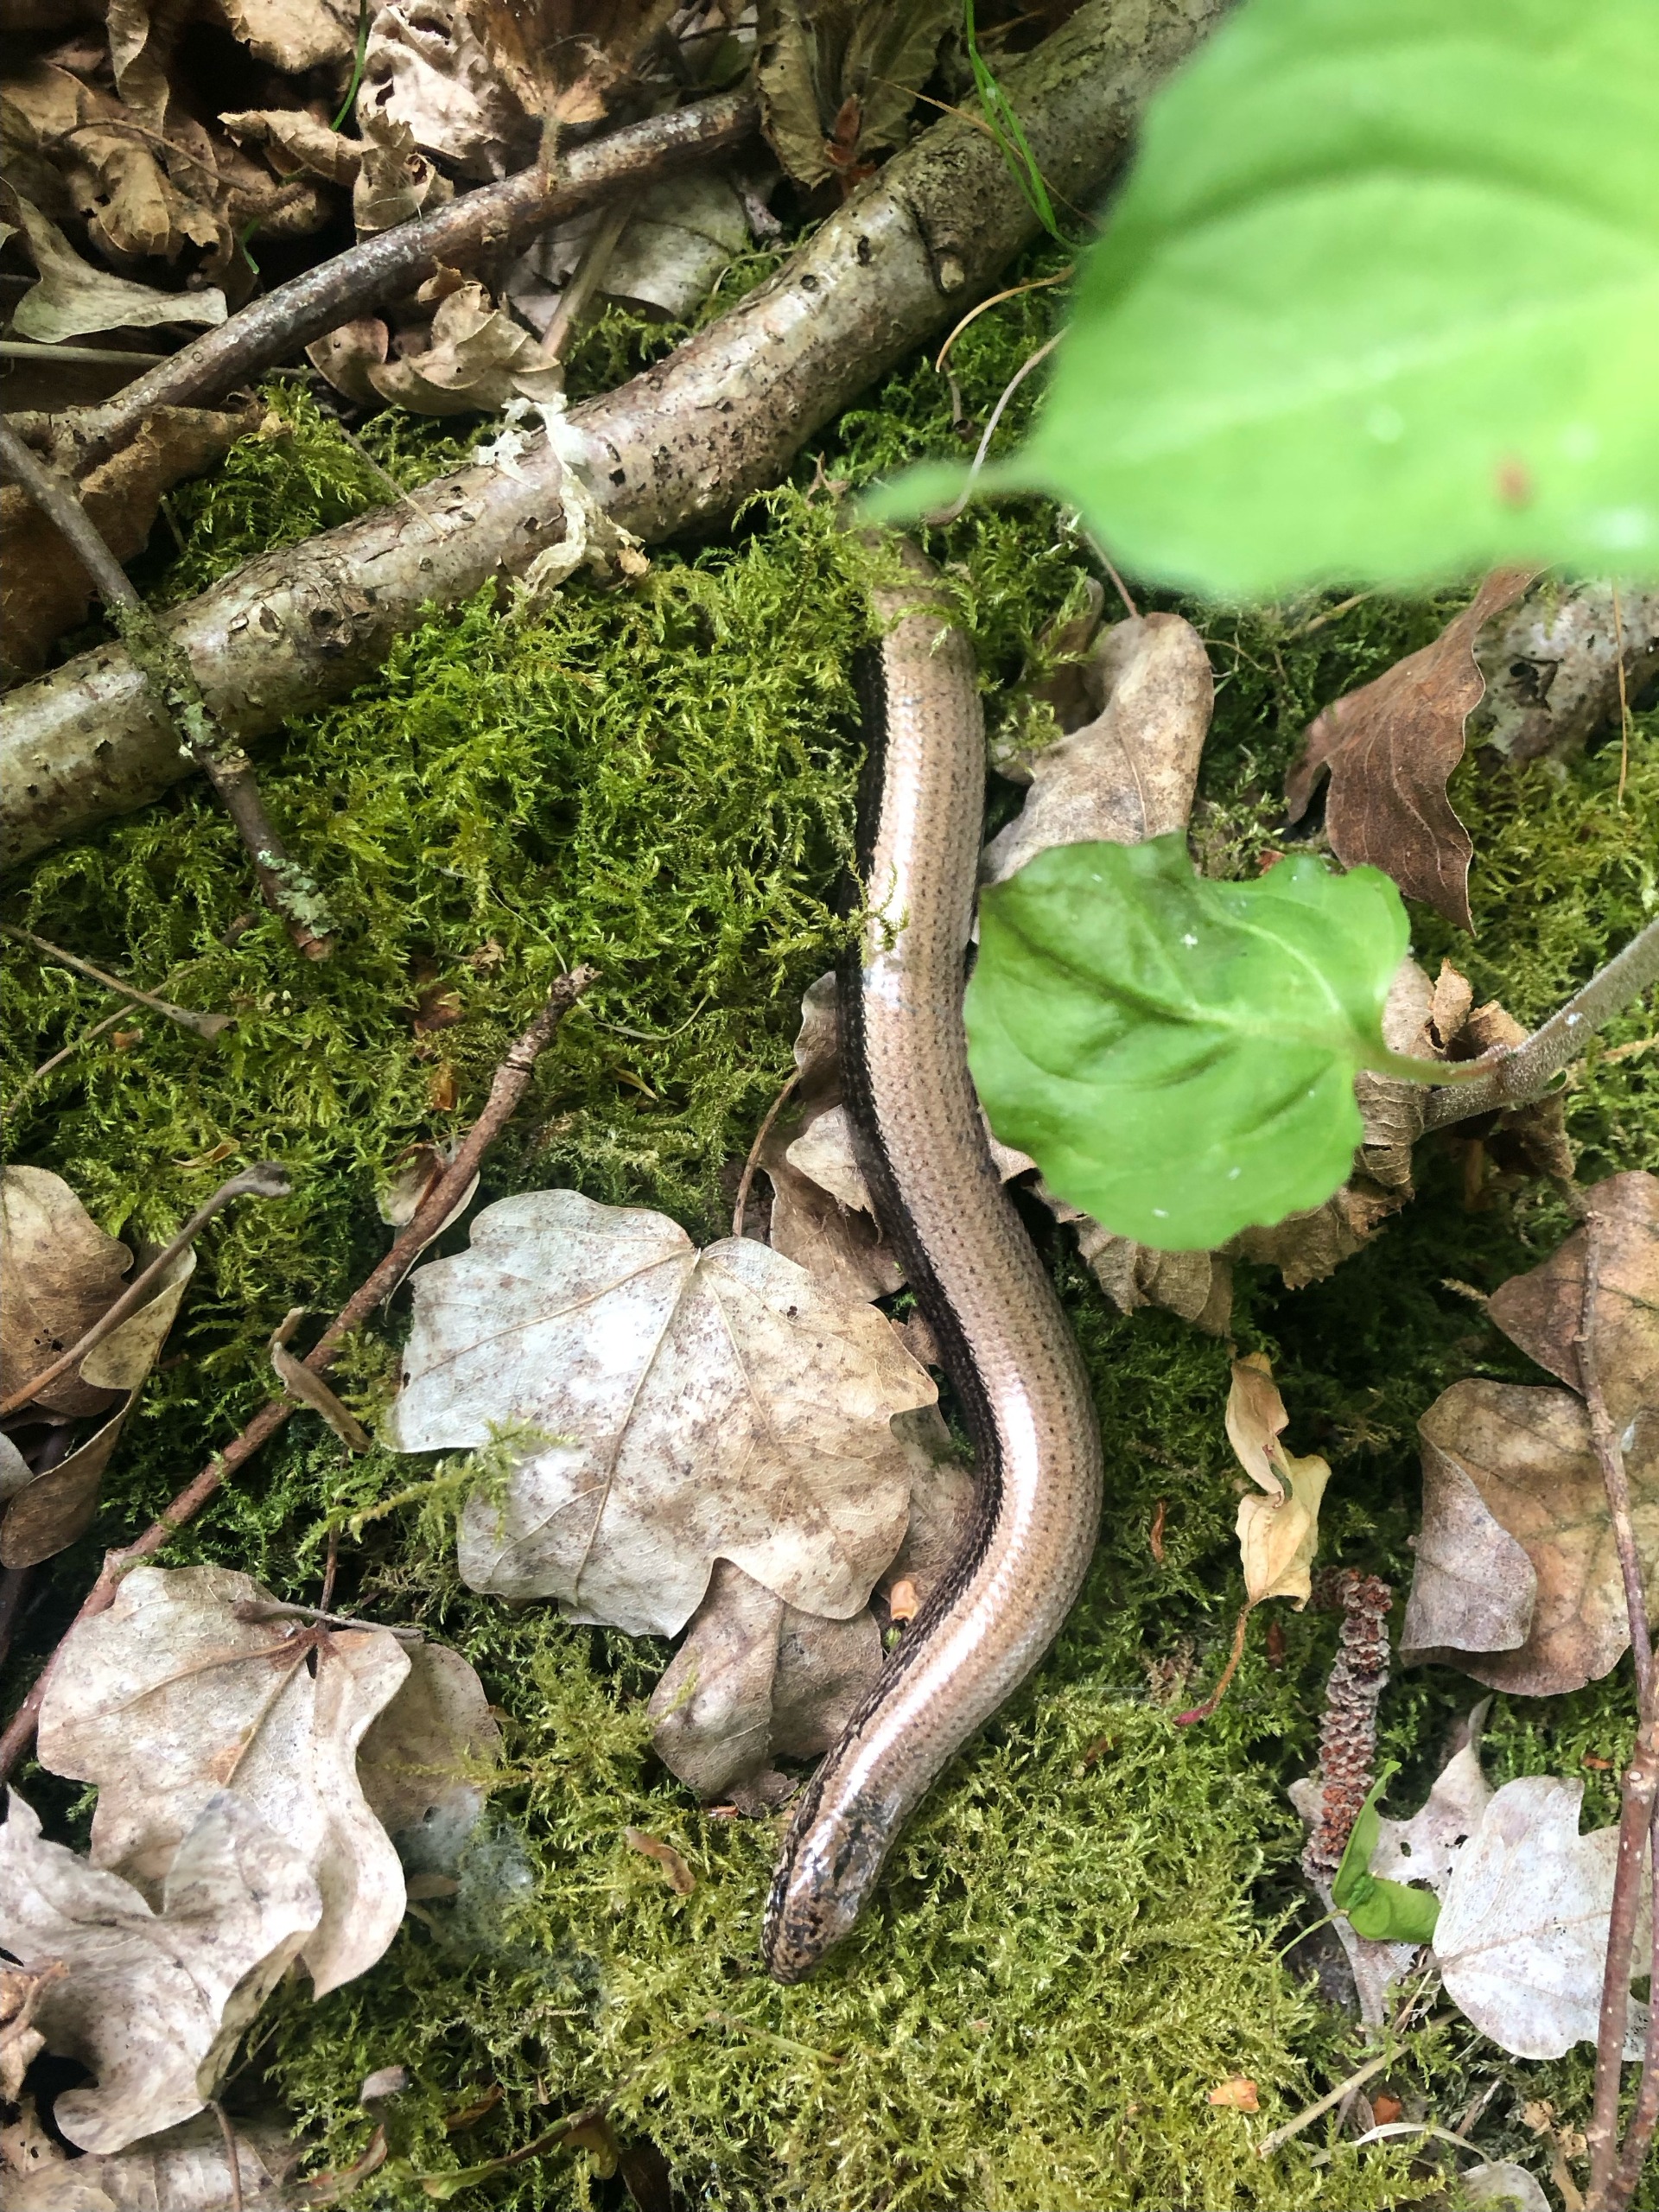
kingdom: Animalia
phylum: Chordata
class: Squamata
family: Anguidae
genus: Anguis
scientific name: Anguis fragilis
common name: Stålorm
